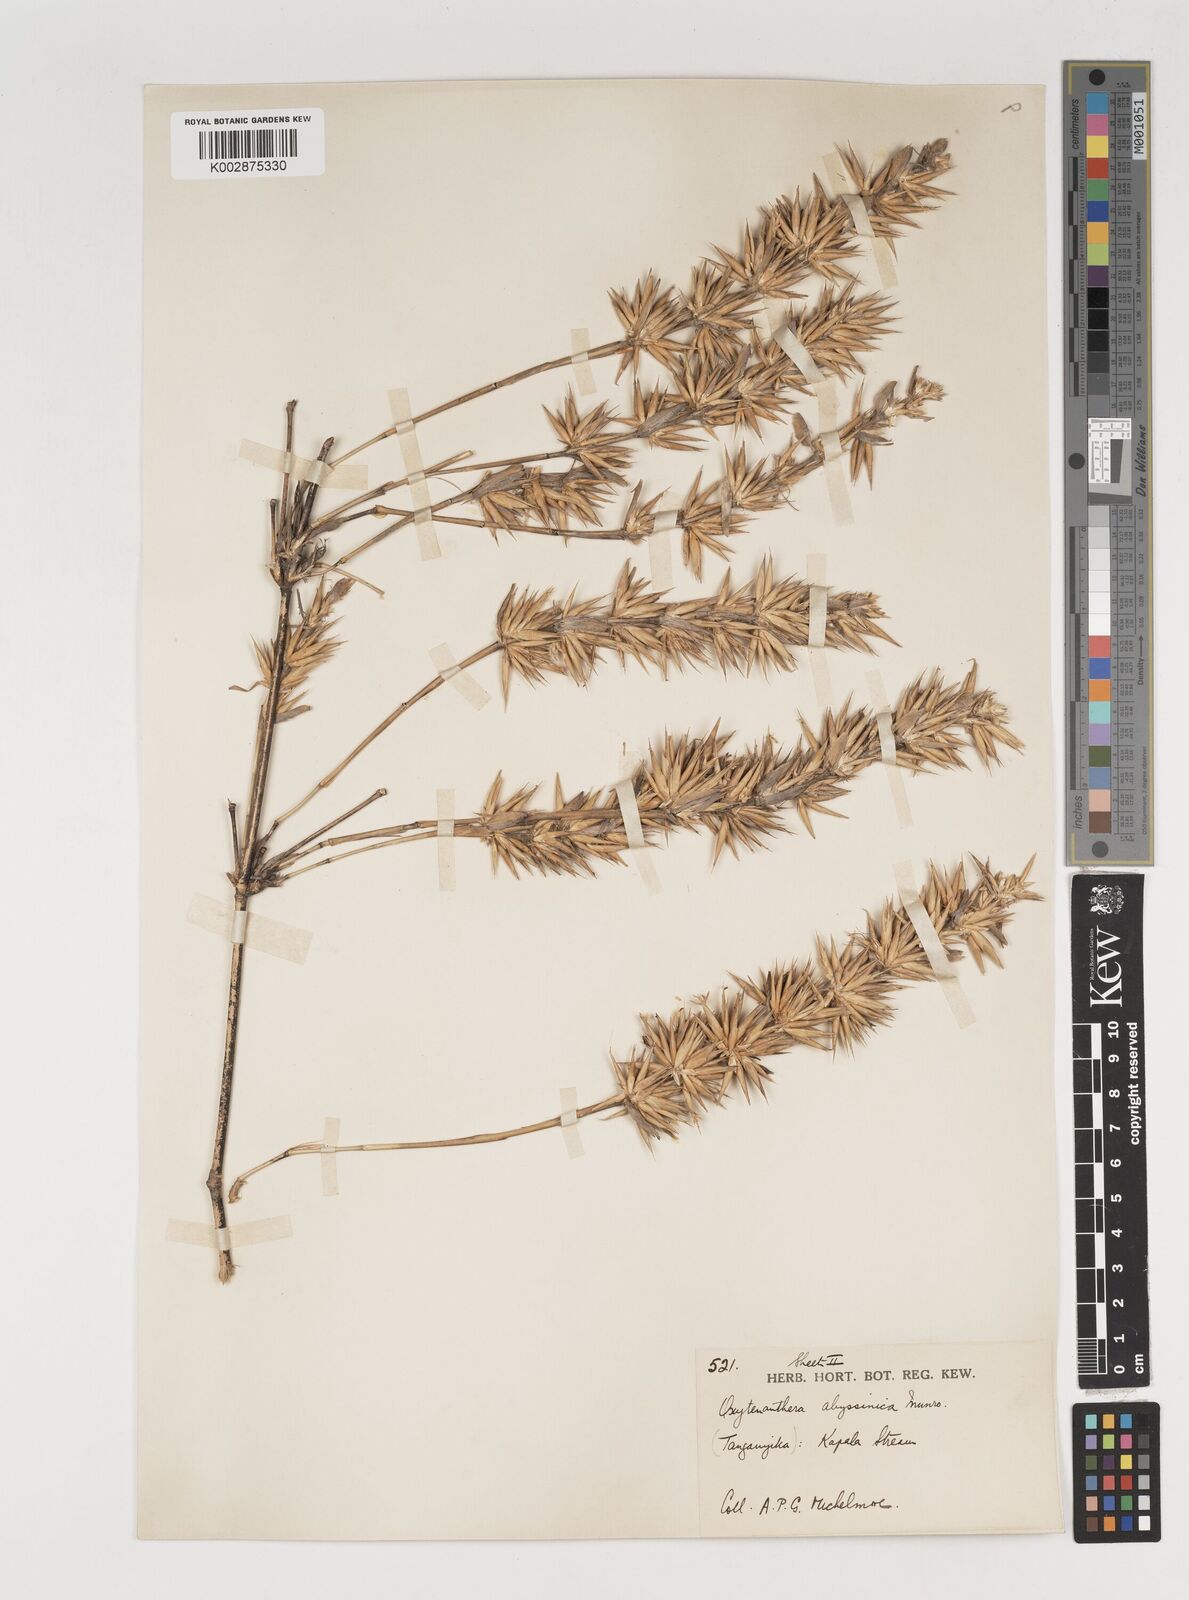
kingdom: Plantae
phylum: Tracheophyta
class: Liliopsida
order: Poales
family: Poaceae
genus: Oxytenanthera
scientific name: Oxytenanthera abyssinica
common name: Wine bamboo
